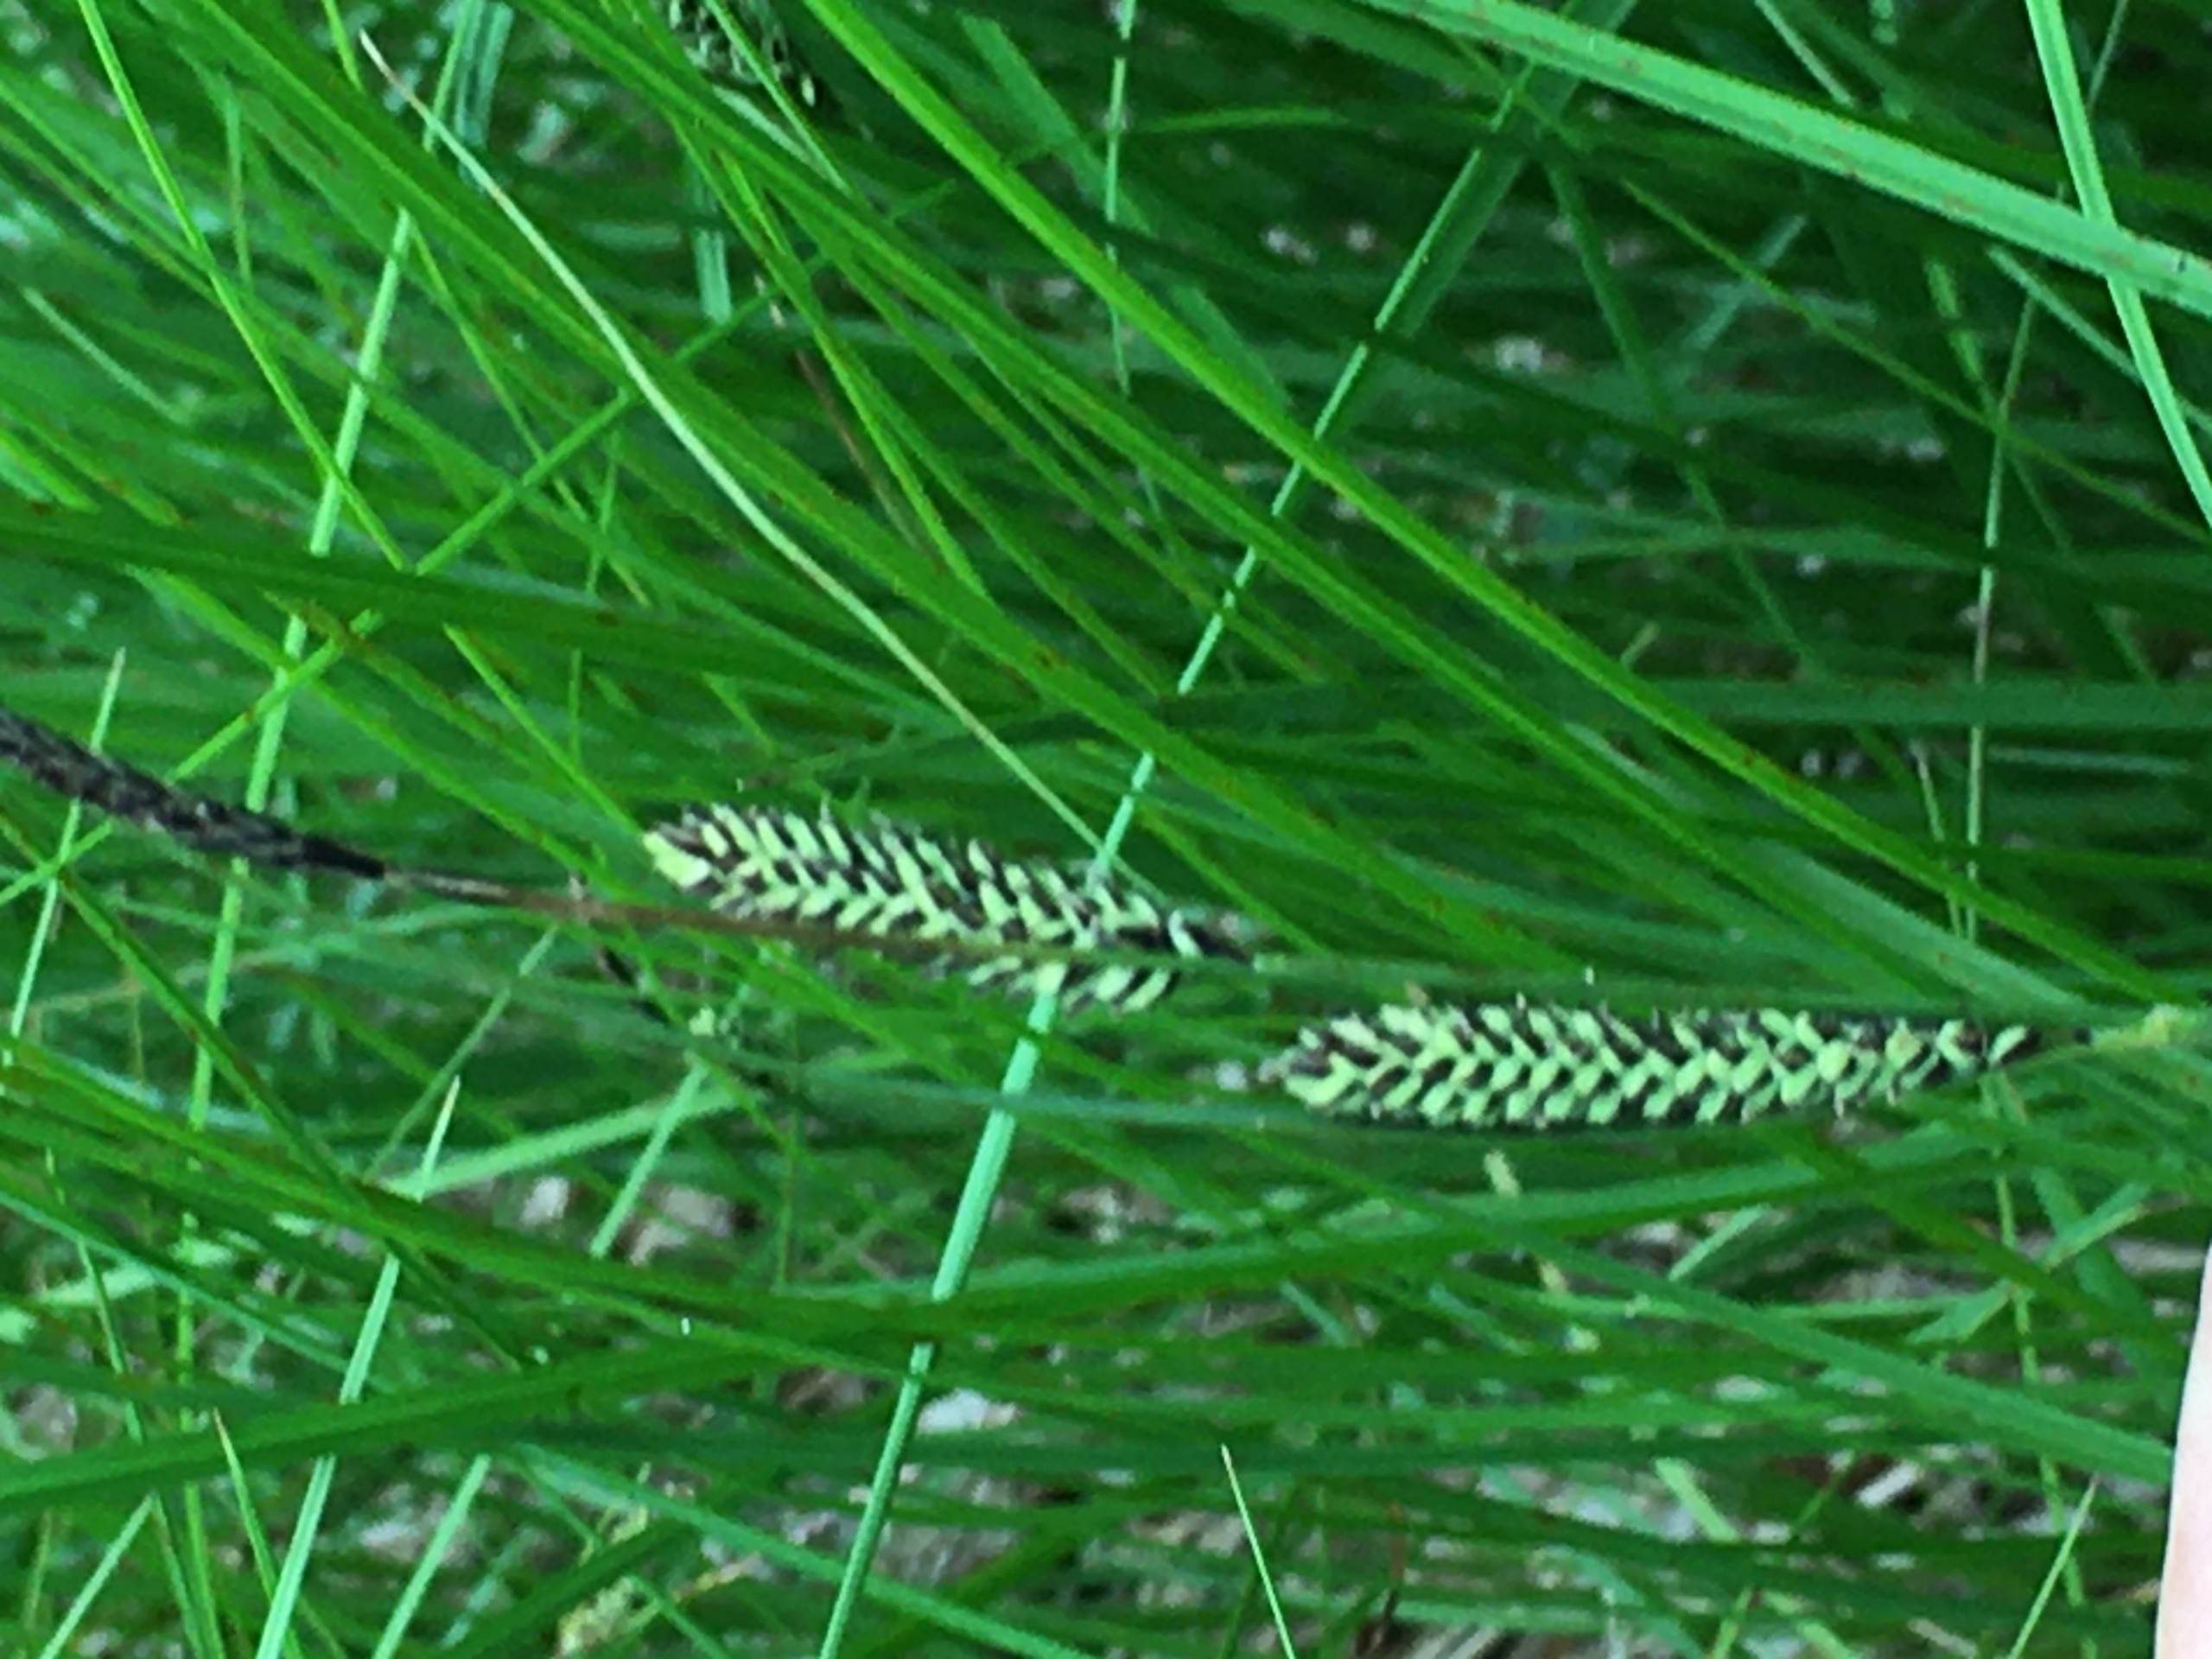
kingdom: Plantae
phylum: Tracheophyta
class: Liliopsida
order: Poales
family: Cyperaceae
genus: Carex
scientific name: Carex nigra
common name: Almindelig star
